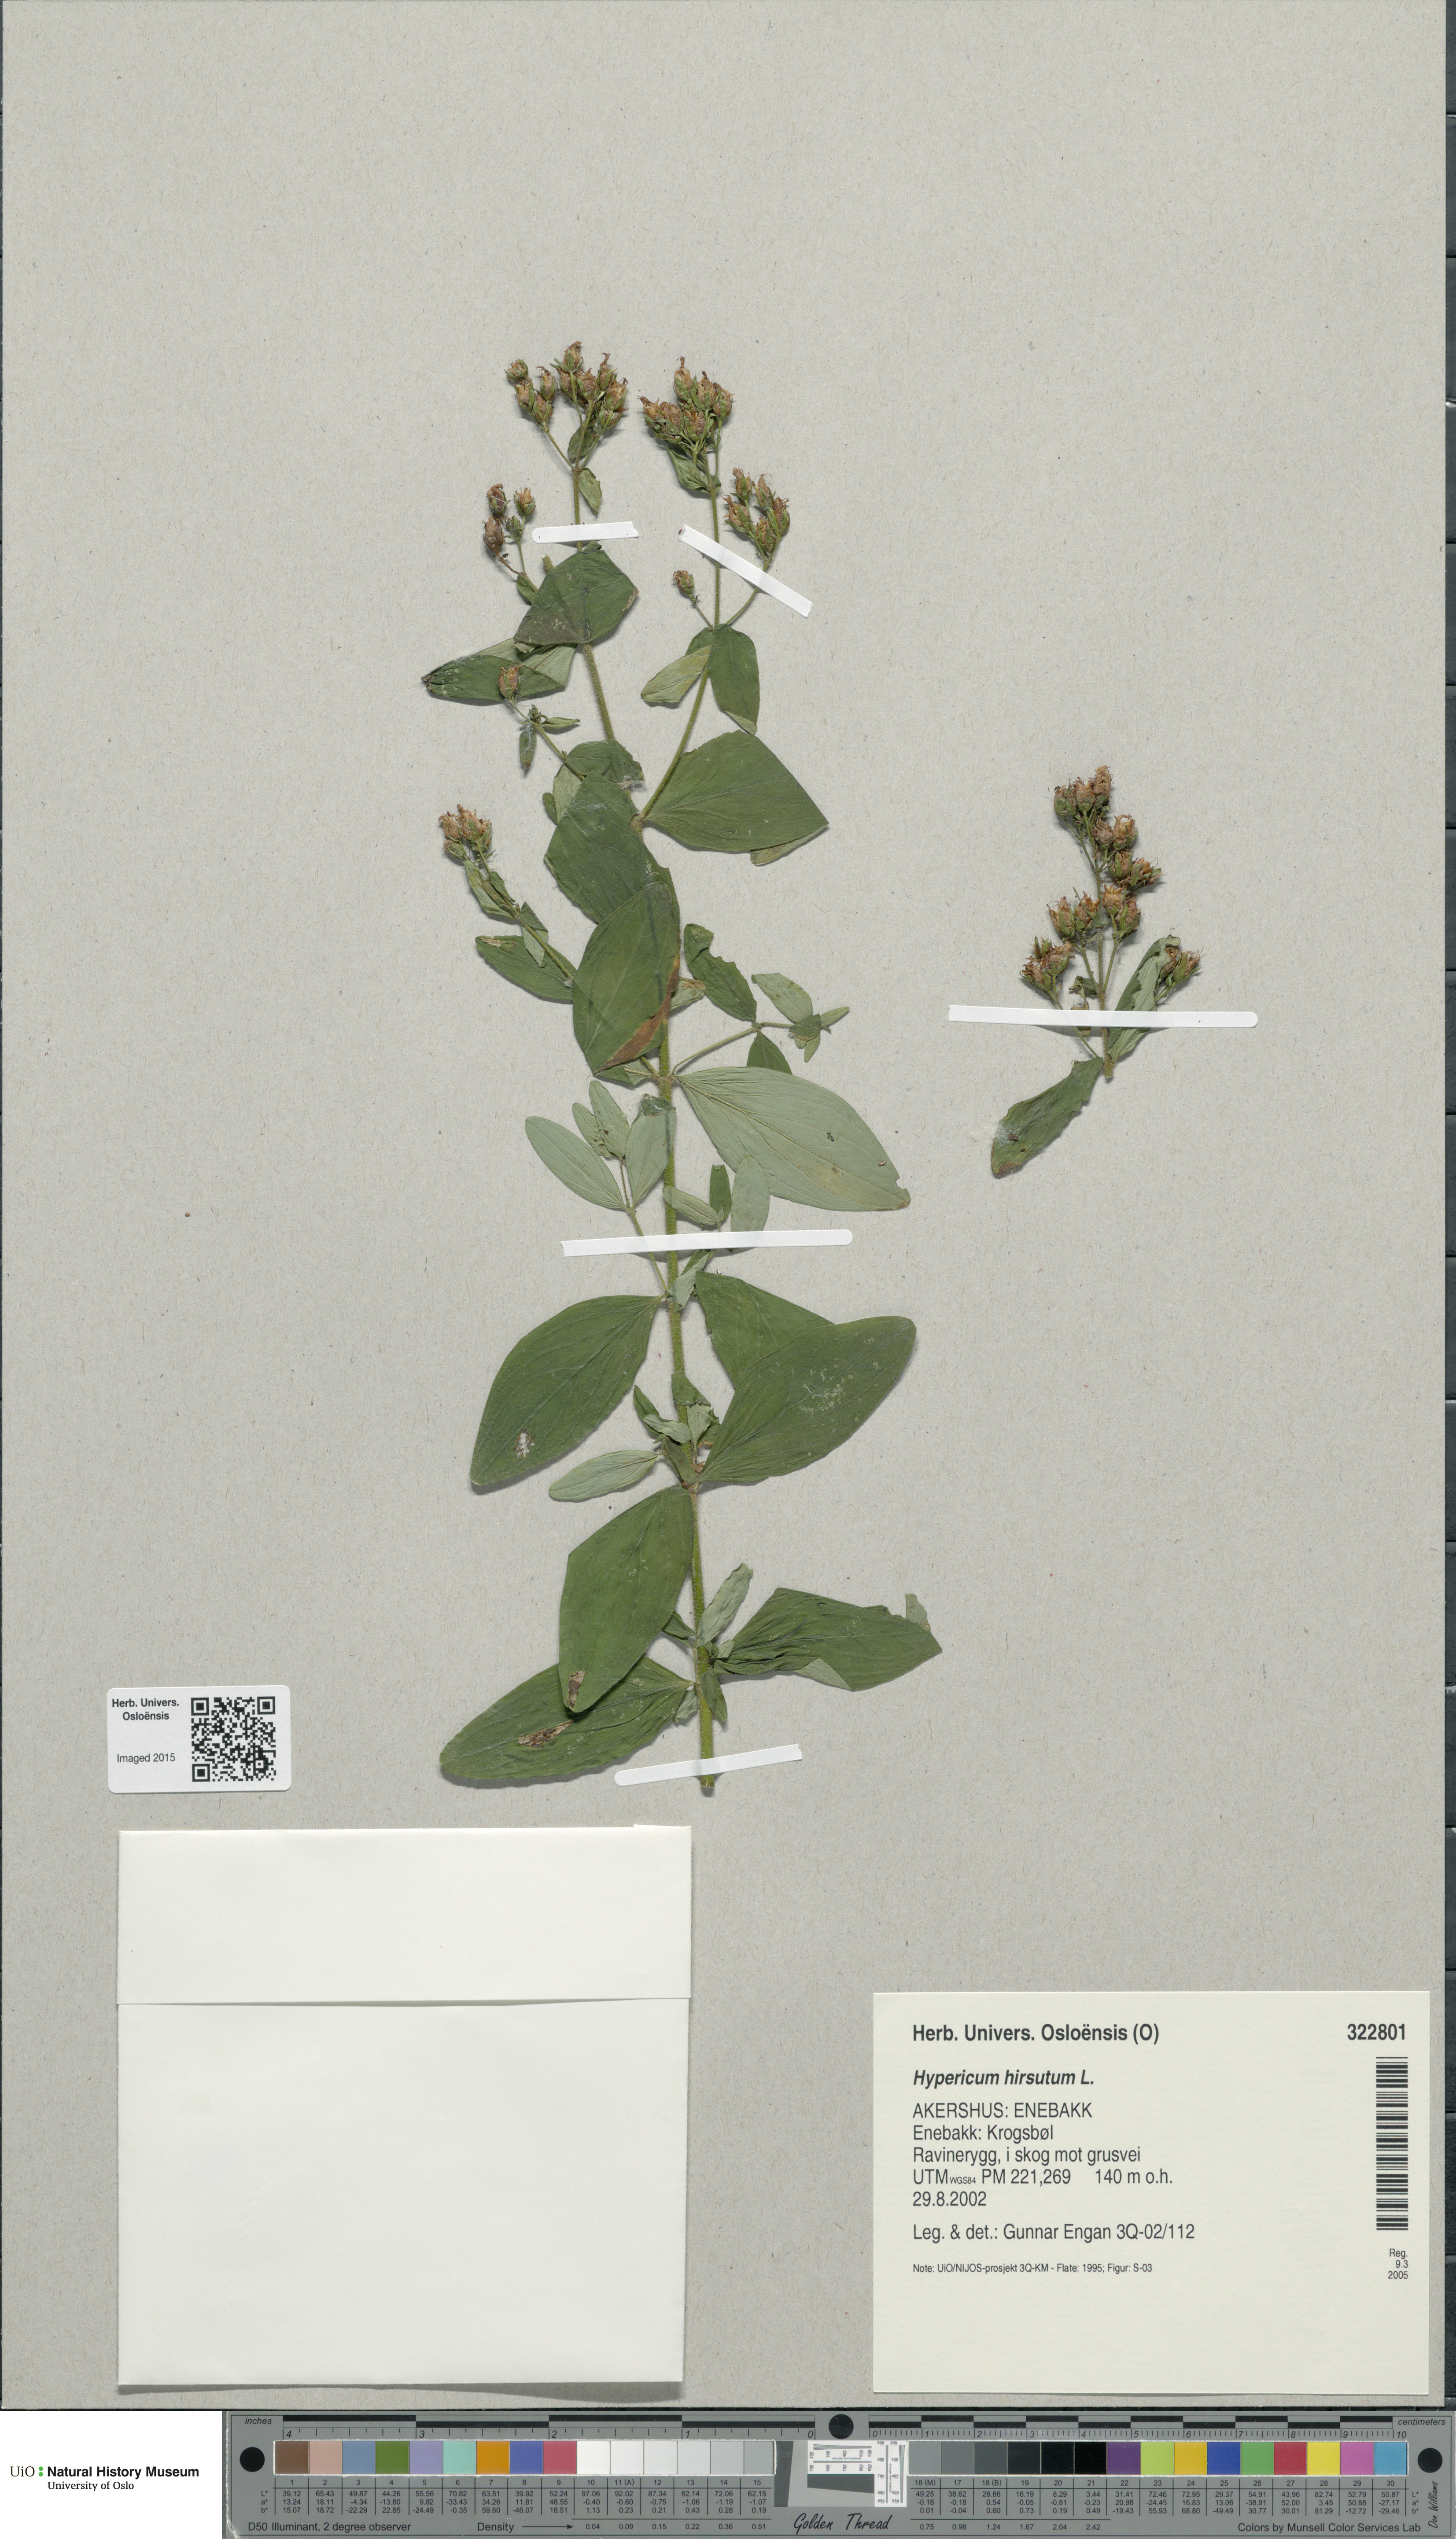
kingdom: Plantae
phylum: Tracheophyta
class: Magnoliopsida
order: Malpighiales
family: Hypericaceae
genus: Hypericum
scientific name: Hypericum hirsutum
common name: Hairy st. john's-wort
